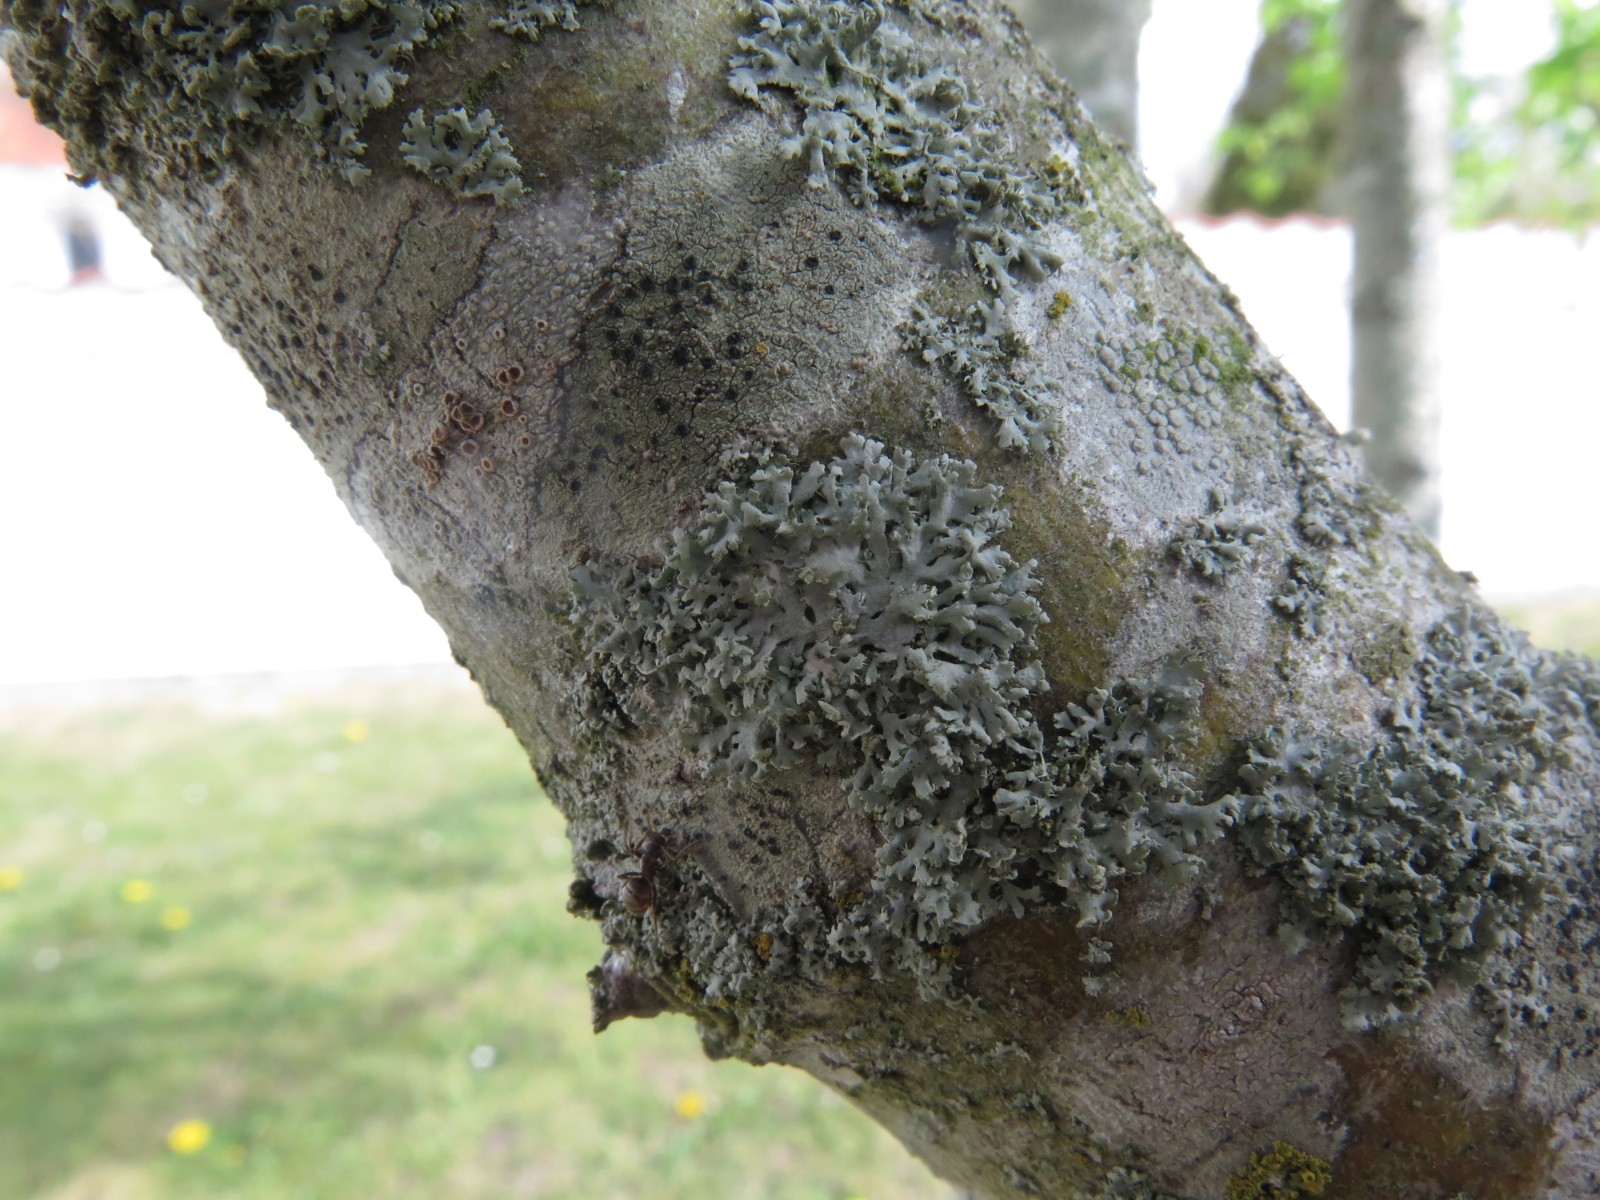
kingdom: Fungi
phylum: Ascomycota
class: Lecanoromycetes
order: Caliciales
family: Physciaceae
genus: Physcia
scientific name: Physcia tenella
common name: spæd rosetlav
